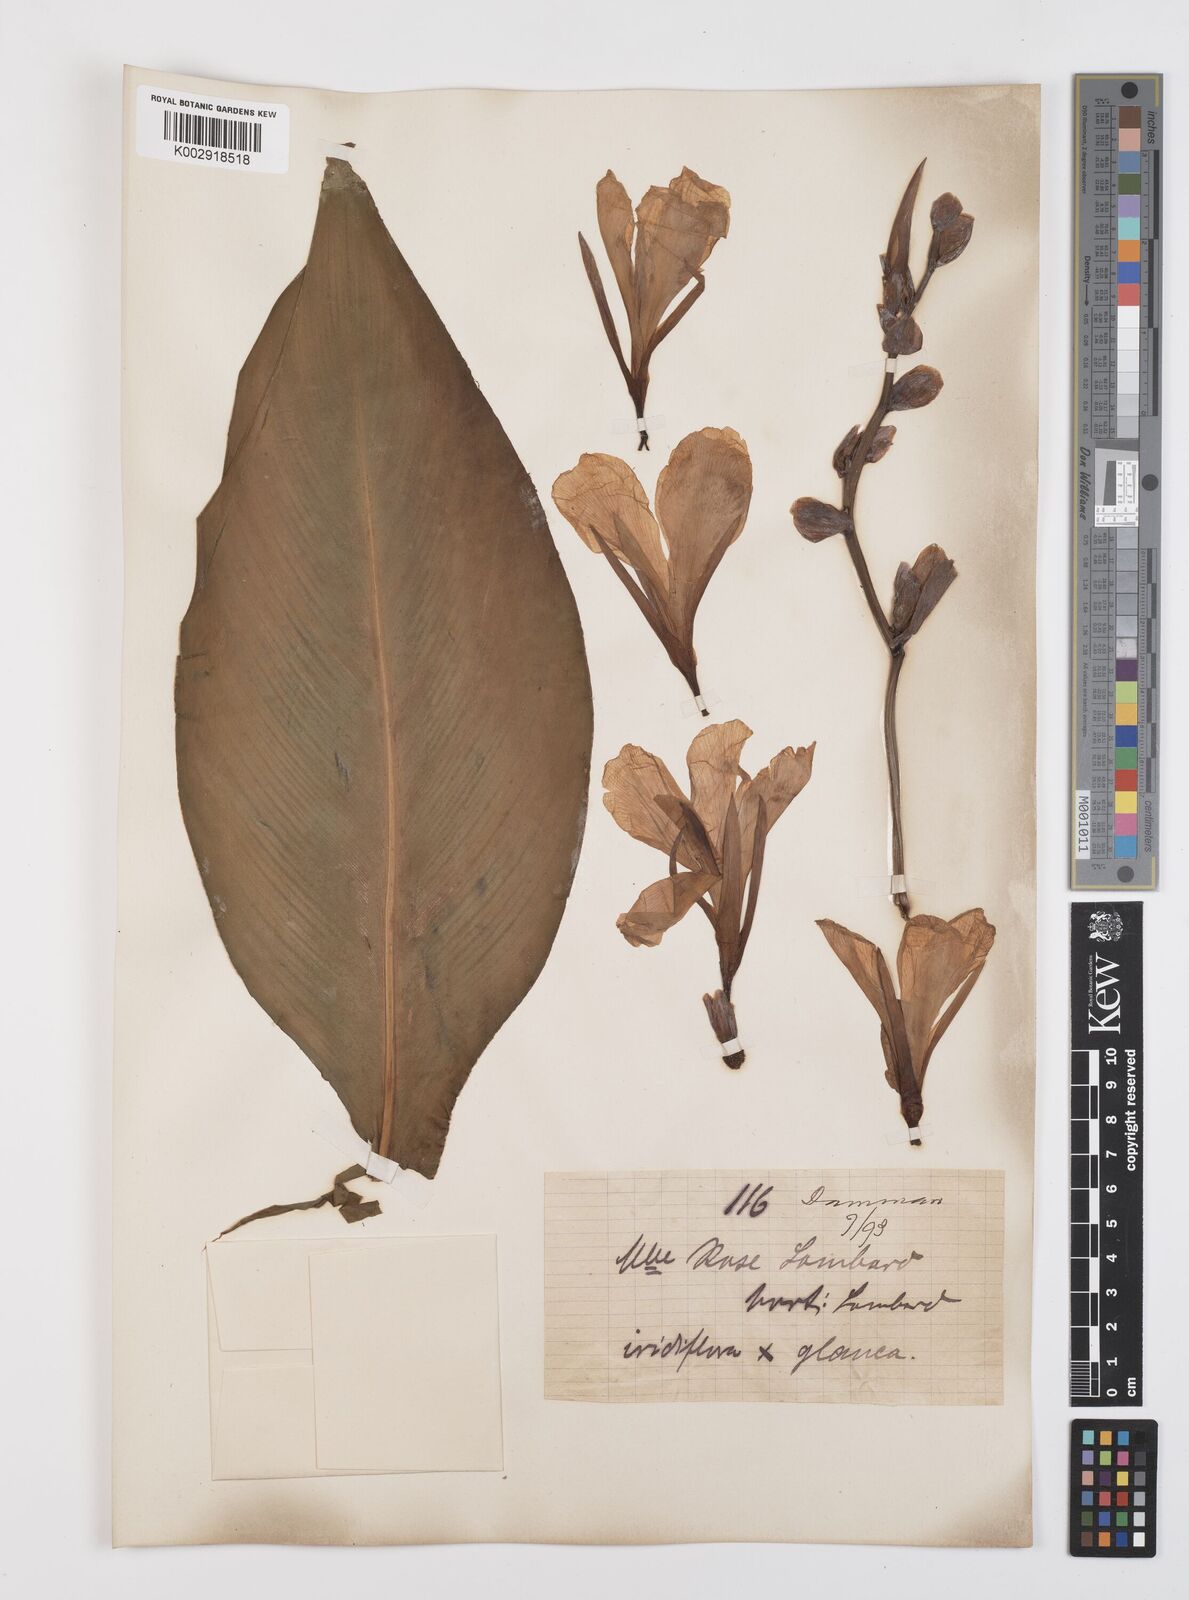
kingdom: Plantae
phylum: Tracheophyta
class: Liliopsida
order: Zingiberales
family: Cannaceae
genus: Canna
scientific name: Canna
